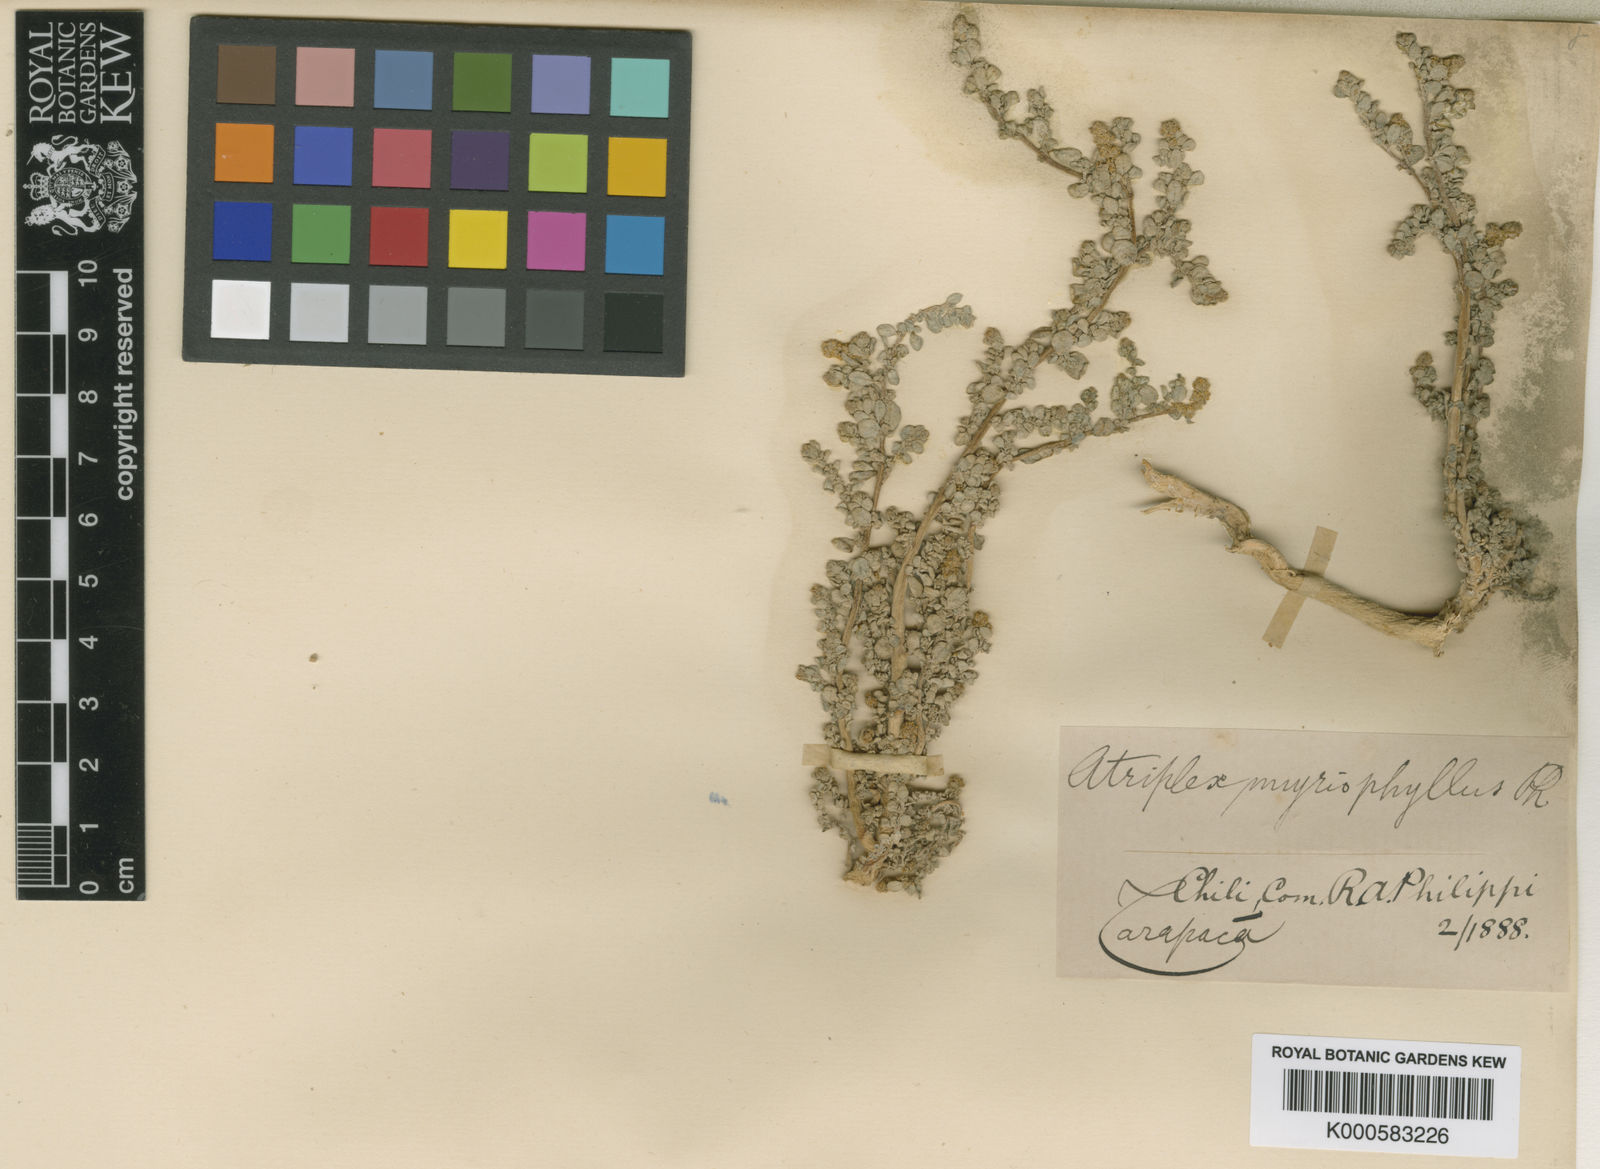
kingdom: Plantae
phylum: Tracheophyta
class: Magnoliopsida
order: Caryophyllales
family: Amaranthaceae
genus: Atriplex
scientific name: Atriplex myriophylla
